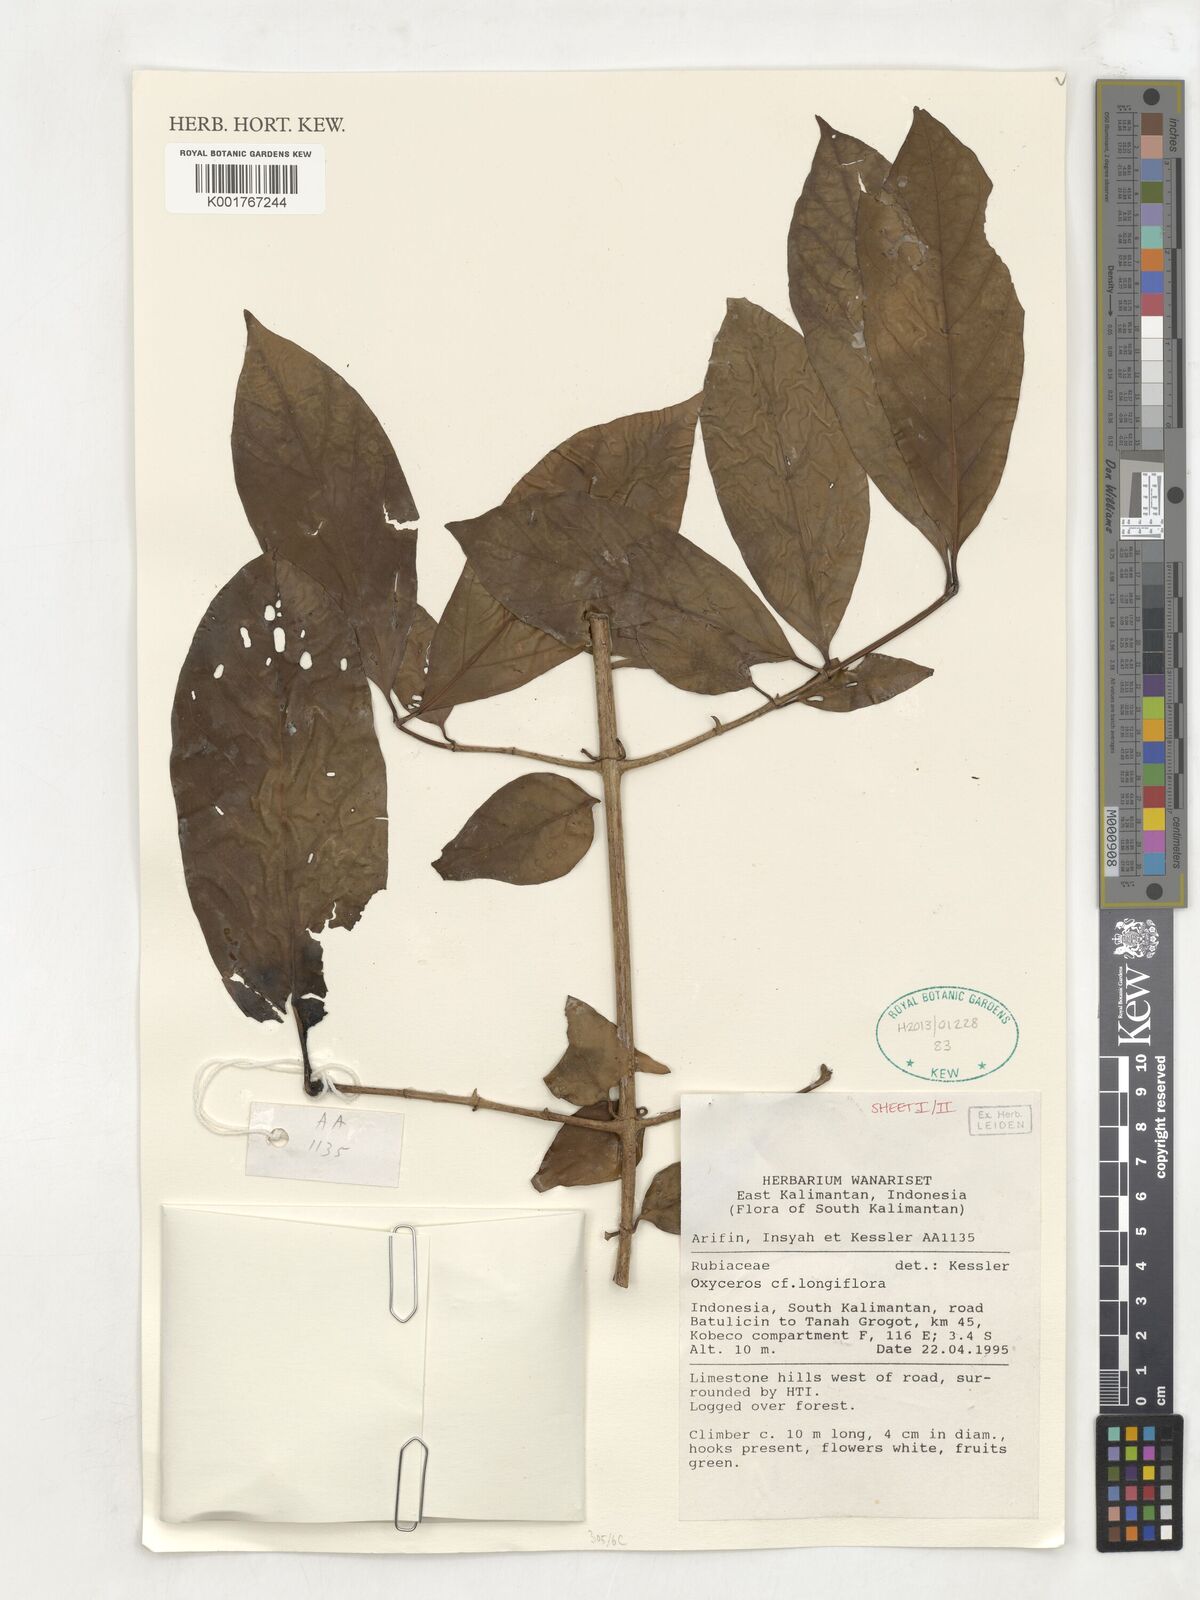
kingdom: Plantae
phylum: Tracheophyta
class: Magnoliopsida
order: Gentianales
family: Rubiaceae
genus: Oxyceros
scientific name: Oxyceros longiflorus
